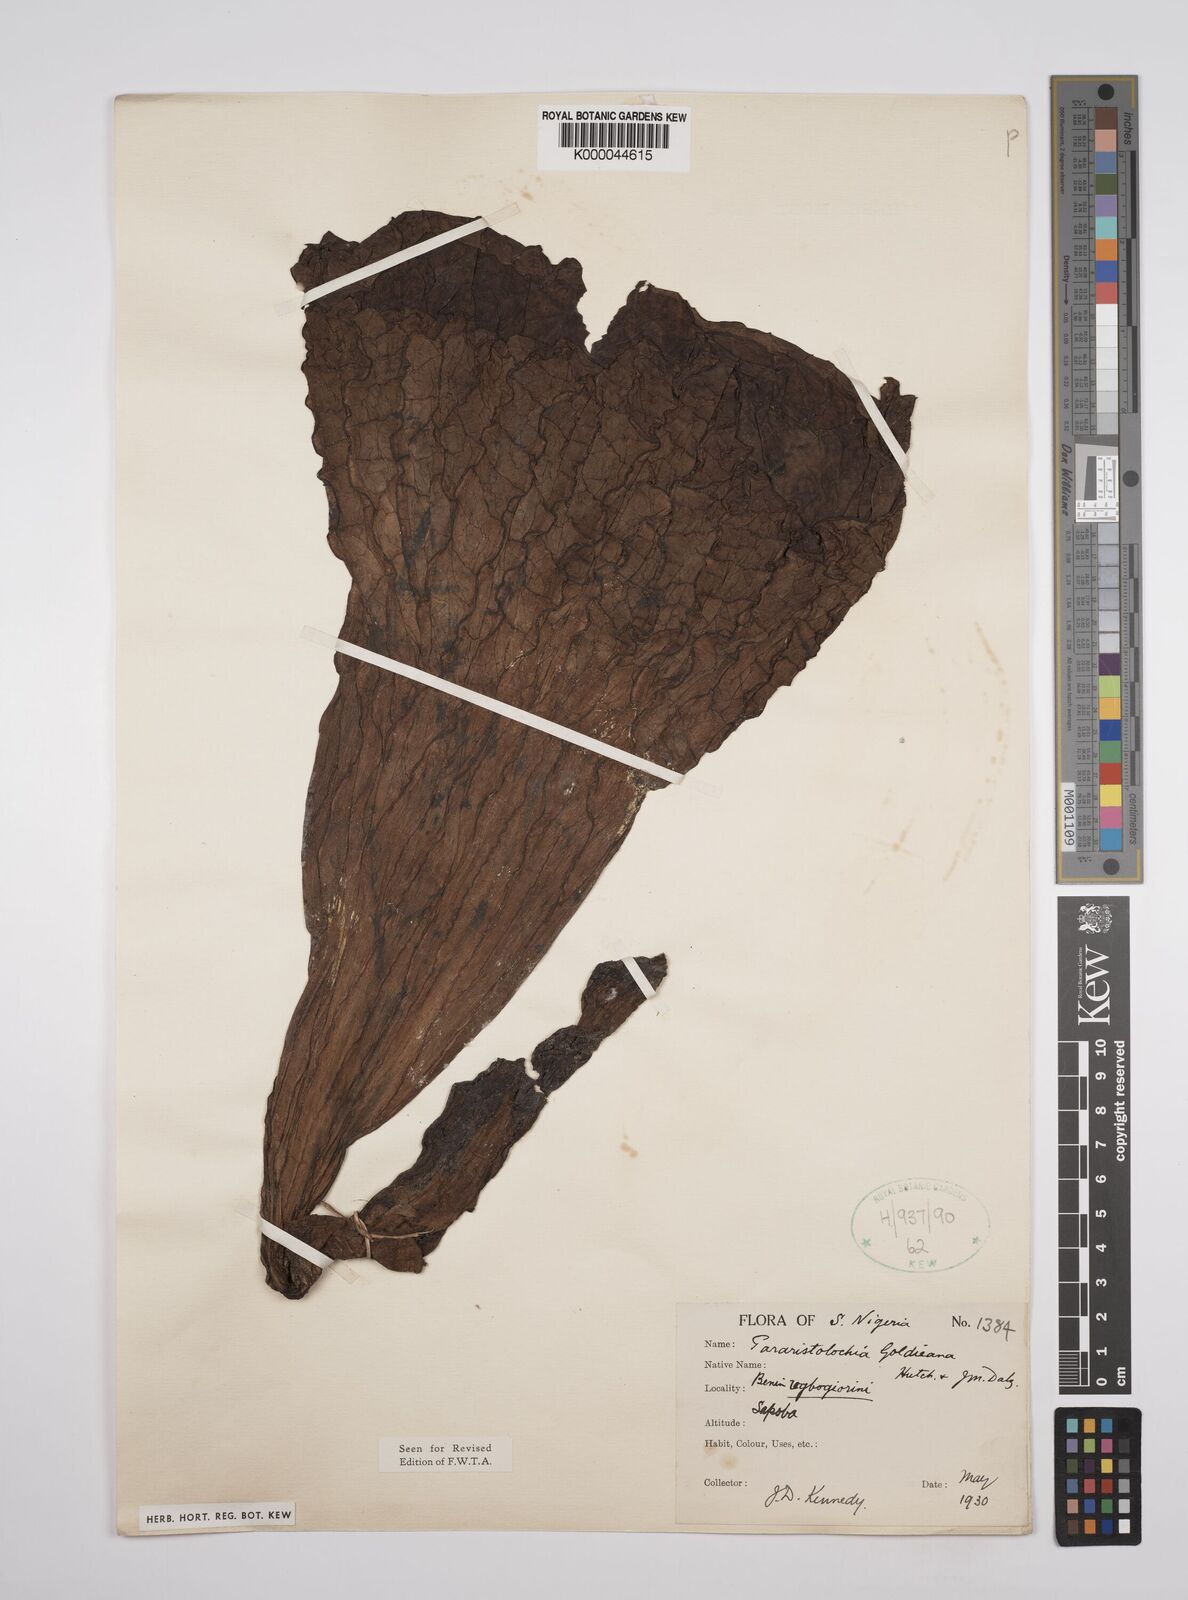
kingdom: Plantae
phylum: Tracheophyta
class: Magnoliopsida
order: Piperales
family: Aristolochiaceae
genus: Aristolochia
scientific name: Aristolochia goldieana
